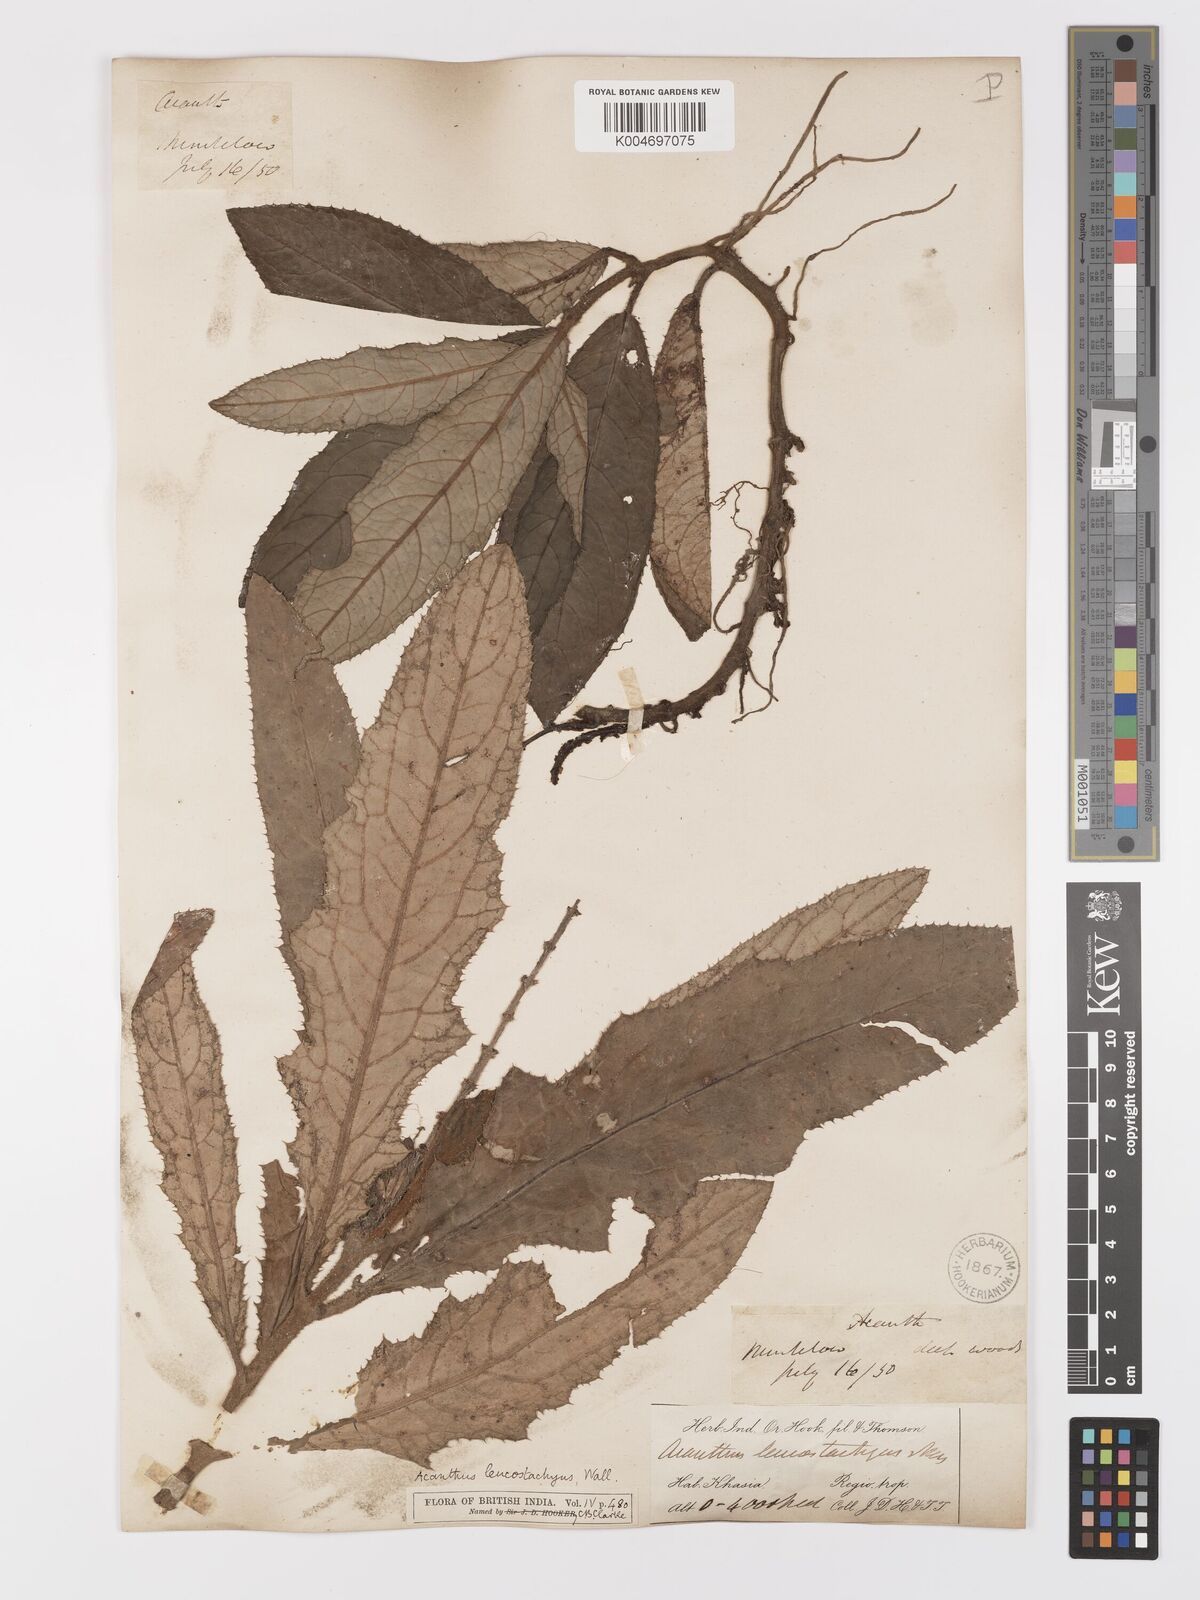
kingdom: Plantae
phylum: Tracheophyta
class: Magnoliopsida
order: Lamiales
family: Acanthaceae
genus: Acanthus
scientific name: Acanthus leucostachyus
